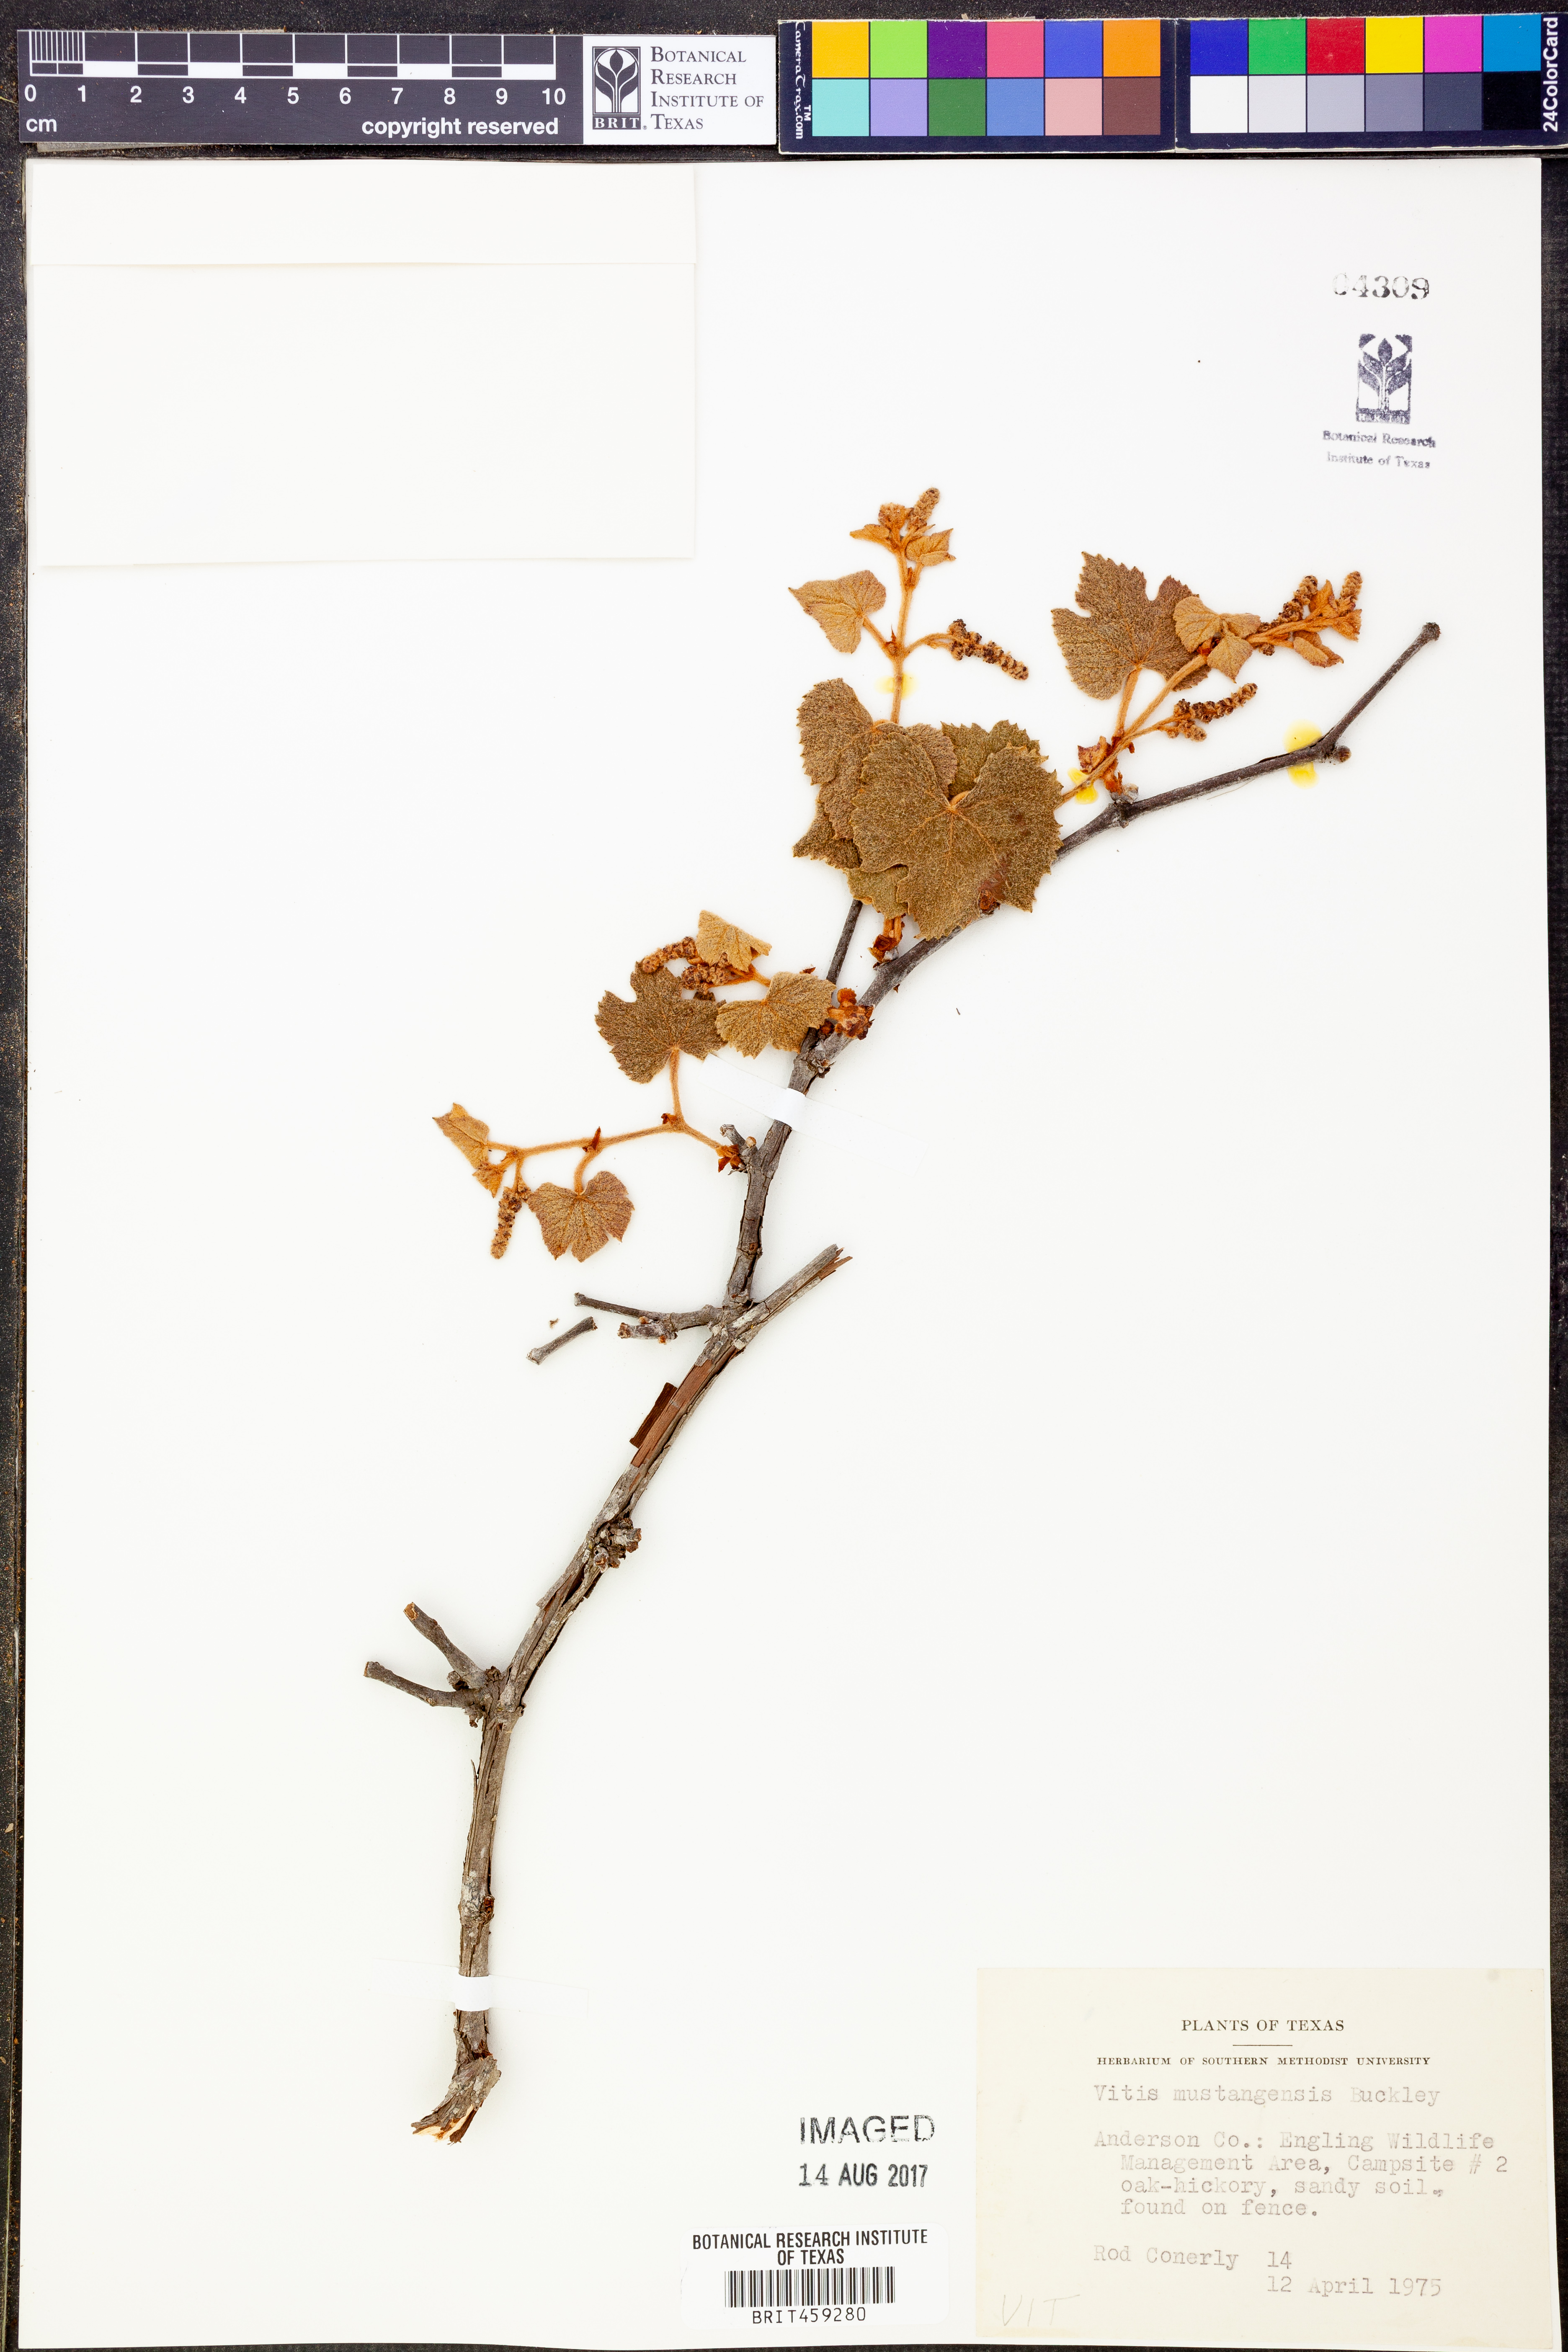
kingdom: Plantae
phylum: Tracheophyta
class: Magnoliopsida
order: Vitales
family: Vitaceae
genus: Vitis
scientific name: Vitis mustangensis
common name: Mustang grape
